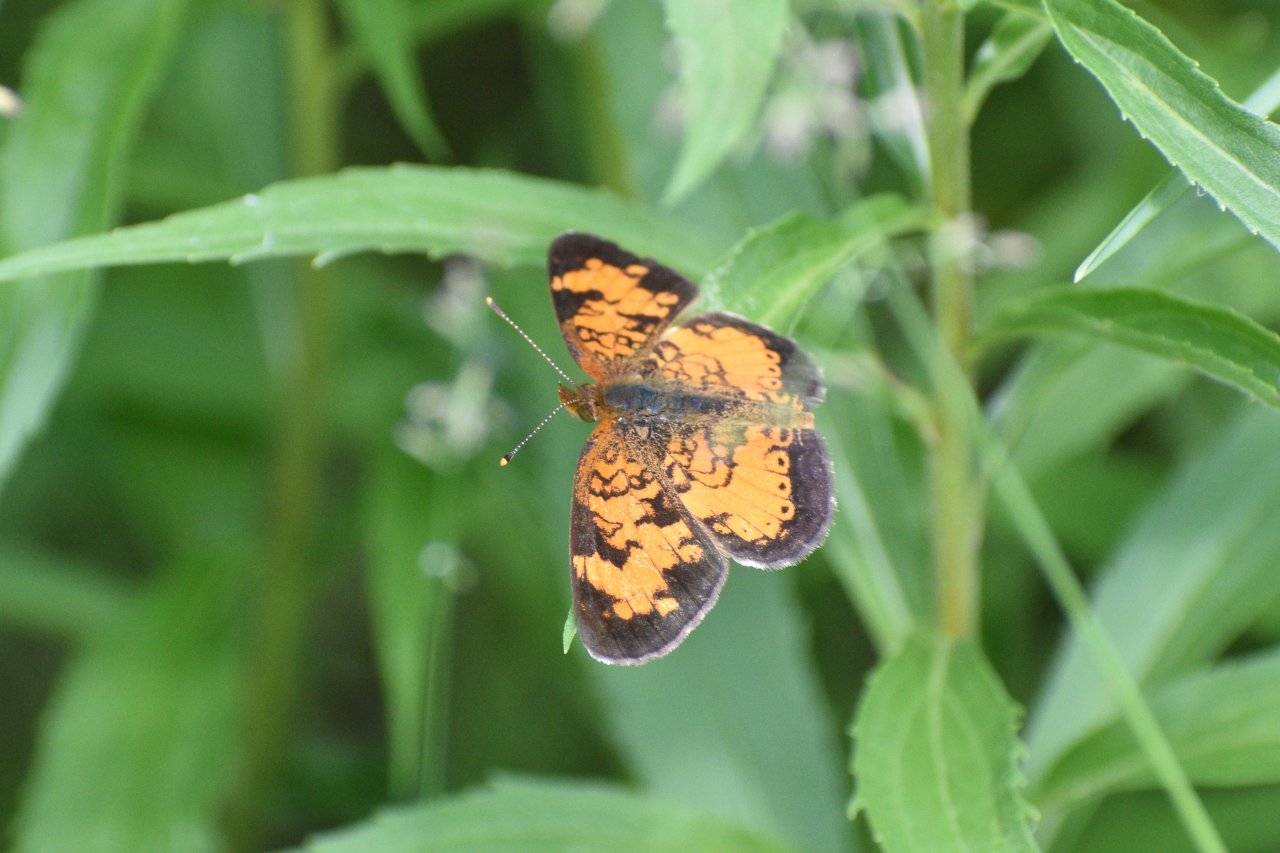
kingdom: Animalia
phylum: Arthropoda
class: Insecta
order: Lepidoptera
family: Nymphalidae
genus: Phyciodes
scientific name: Phyciodes tharos
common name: Northern Crescent
